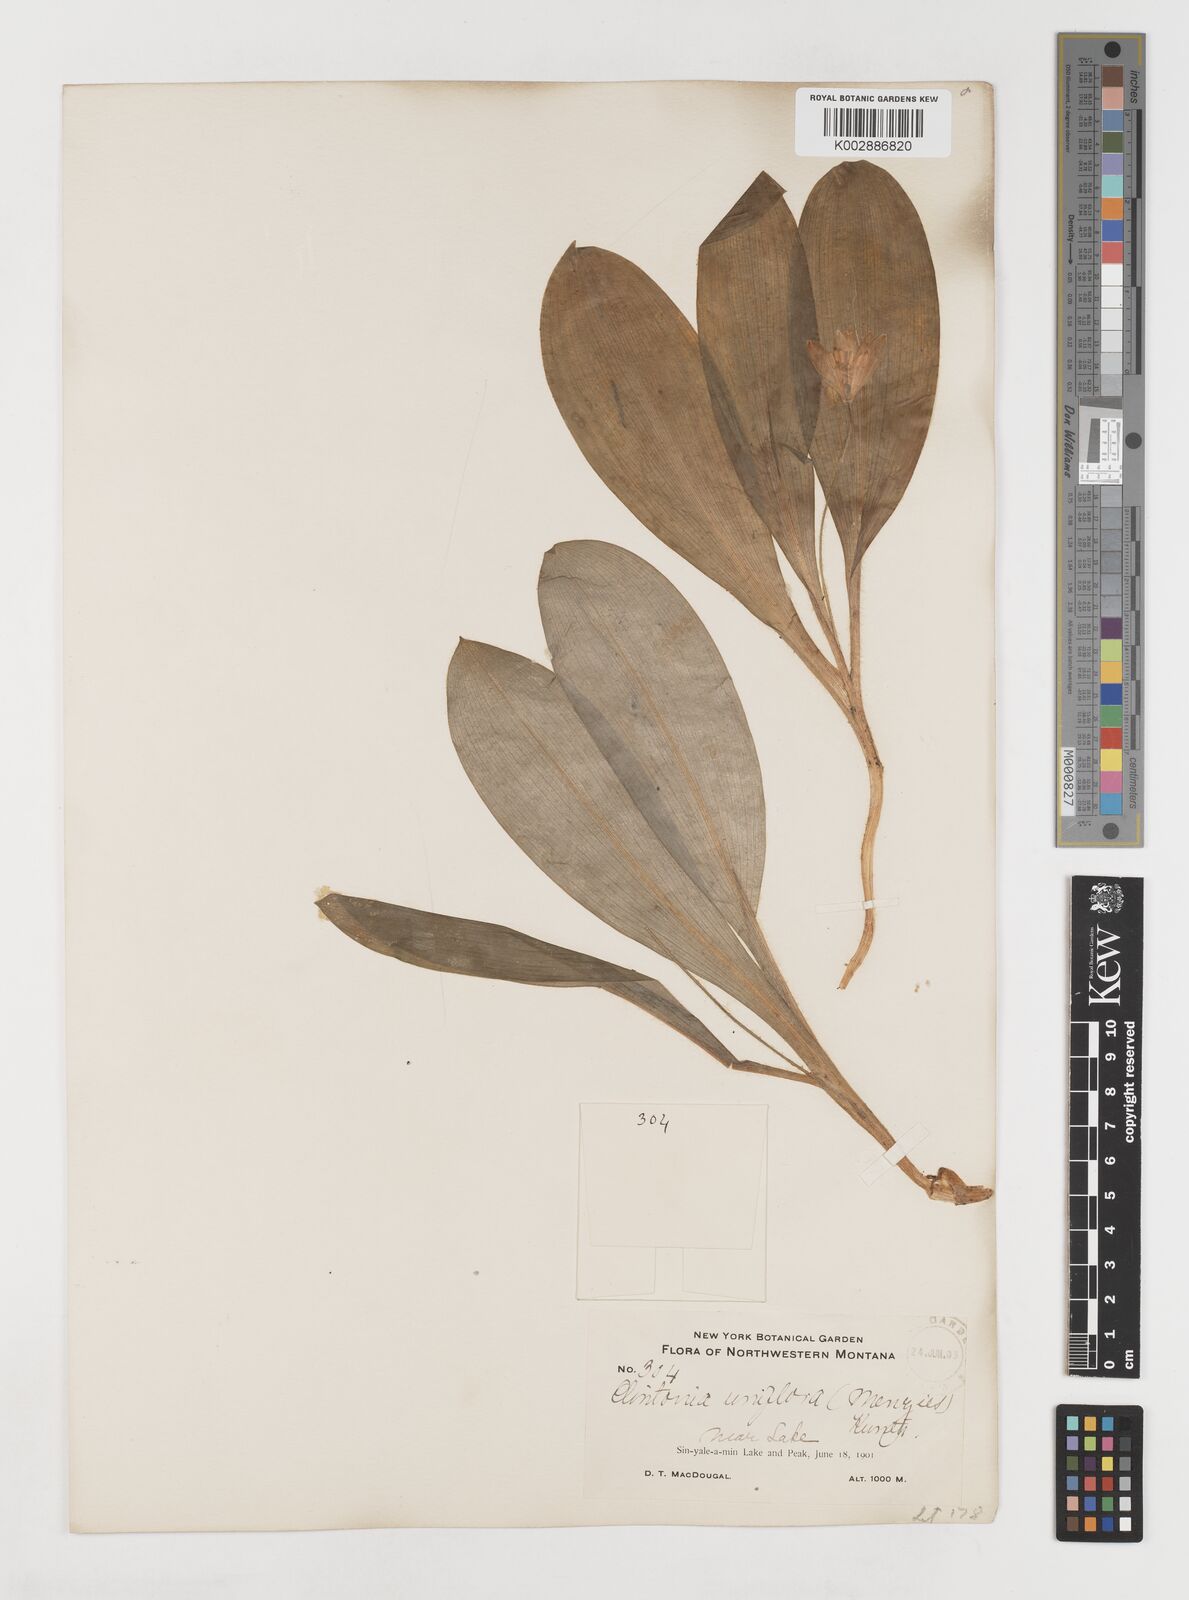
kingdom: Plantae
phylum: Tracheophyta
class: Liliopsida
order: Liliales
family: Liliaceae
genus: Clintonia
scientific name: Clintonia uniflora
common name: Queen's cup
